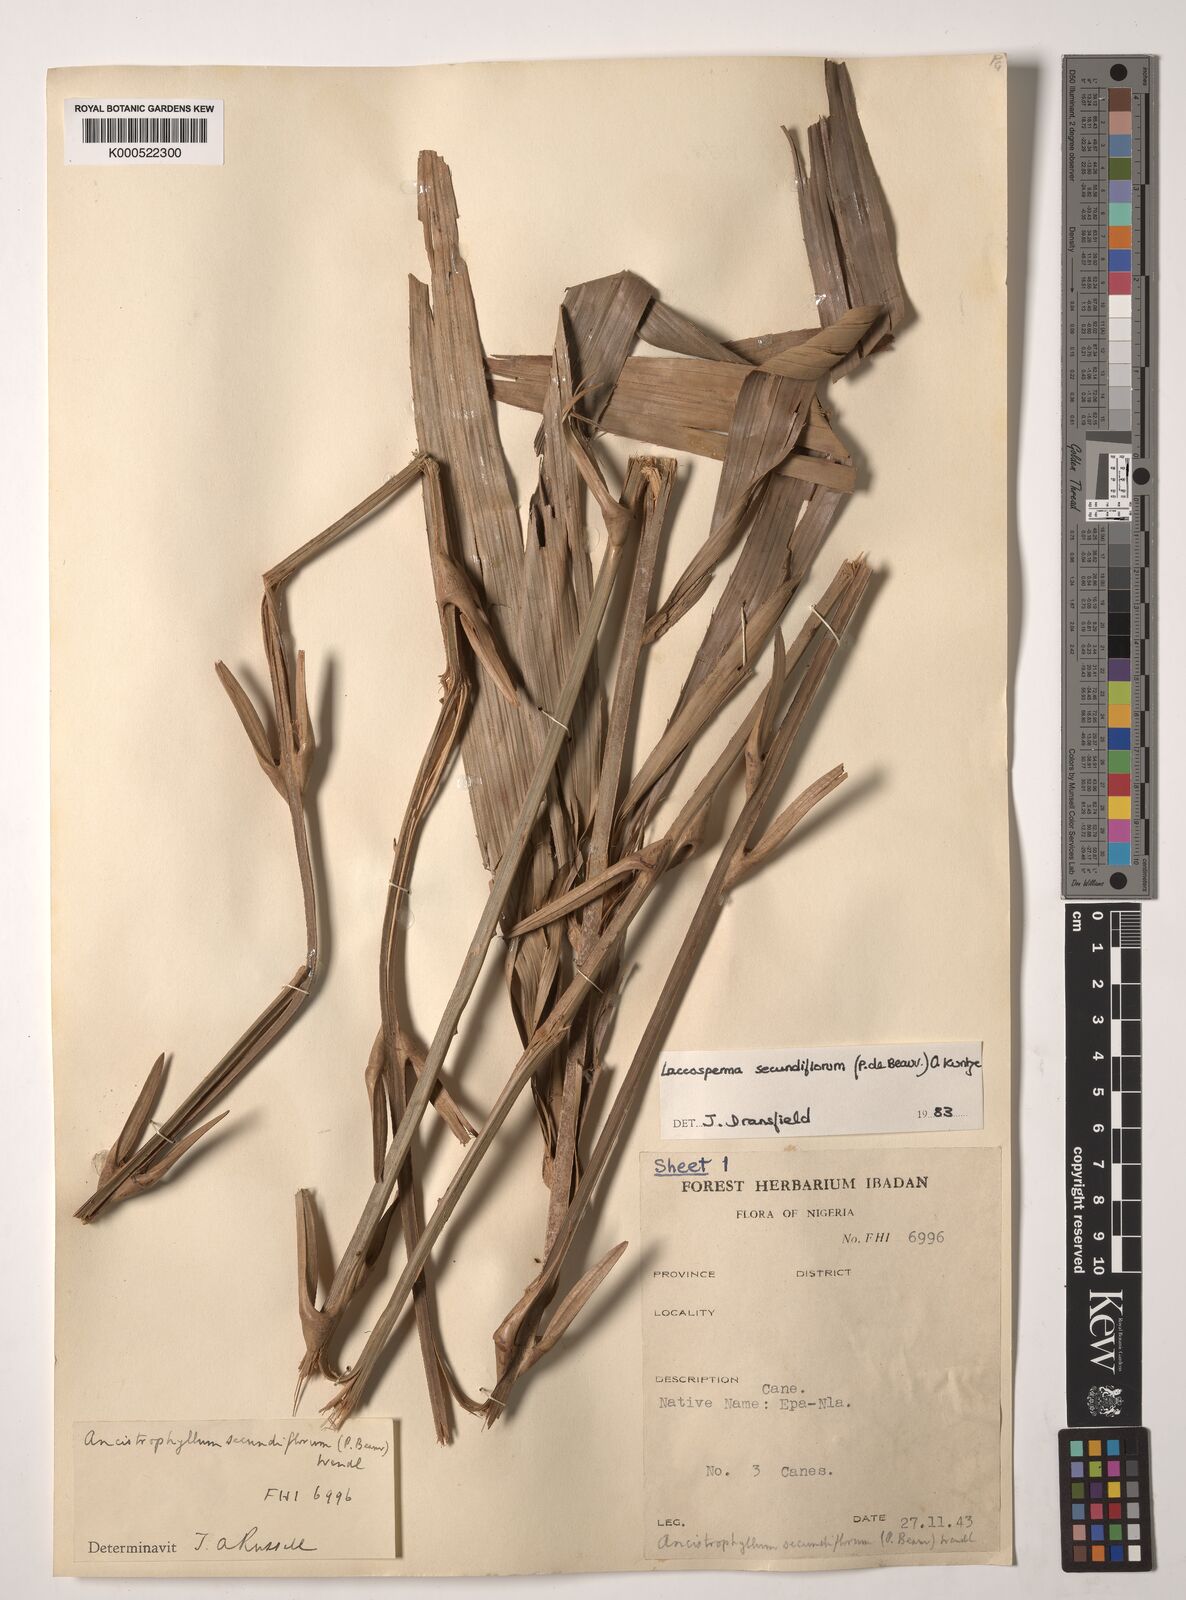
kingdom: Plantae
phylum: Tracheophyta
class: Liliopsida
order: Arecales
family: Arecaceae
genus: Laccosperma
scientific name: Laccosperma secundiflorum
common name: Rattan
